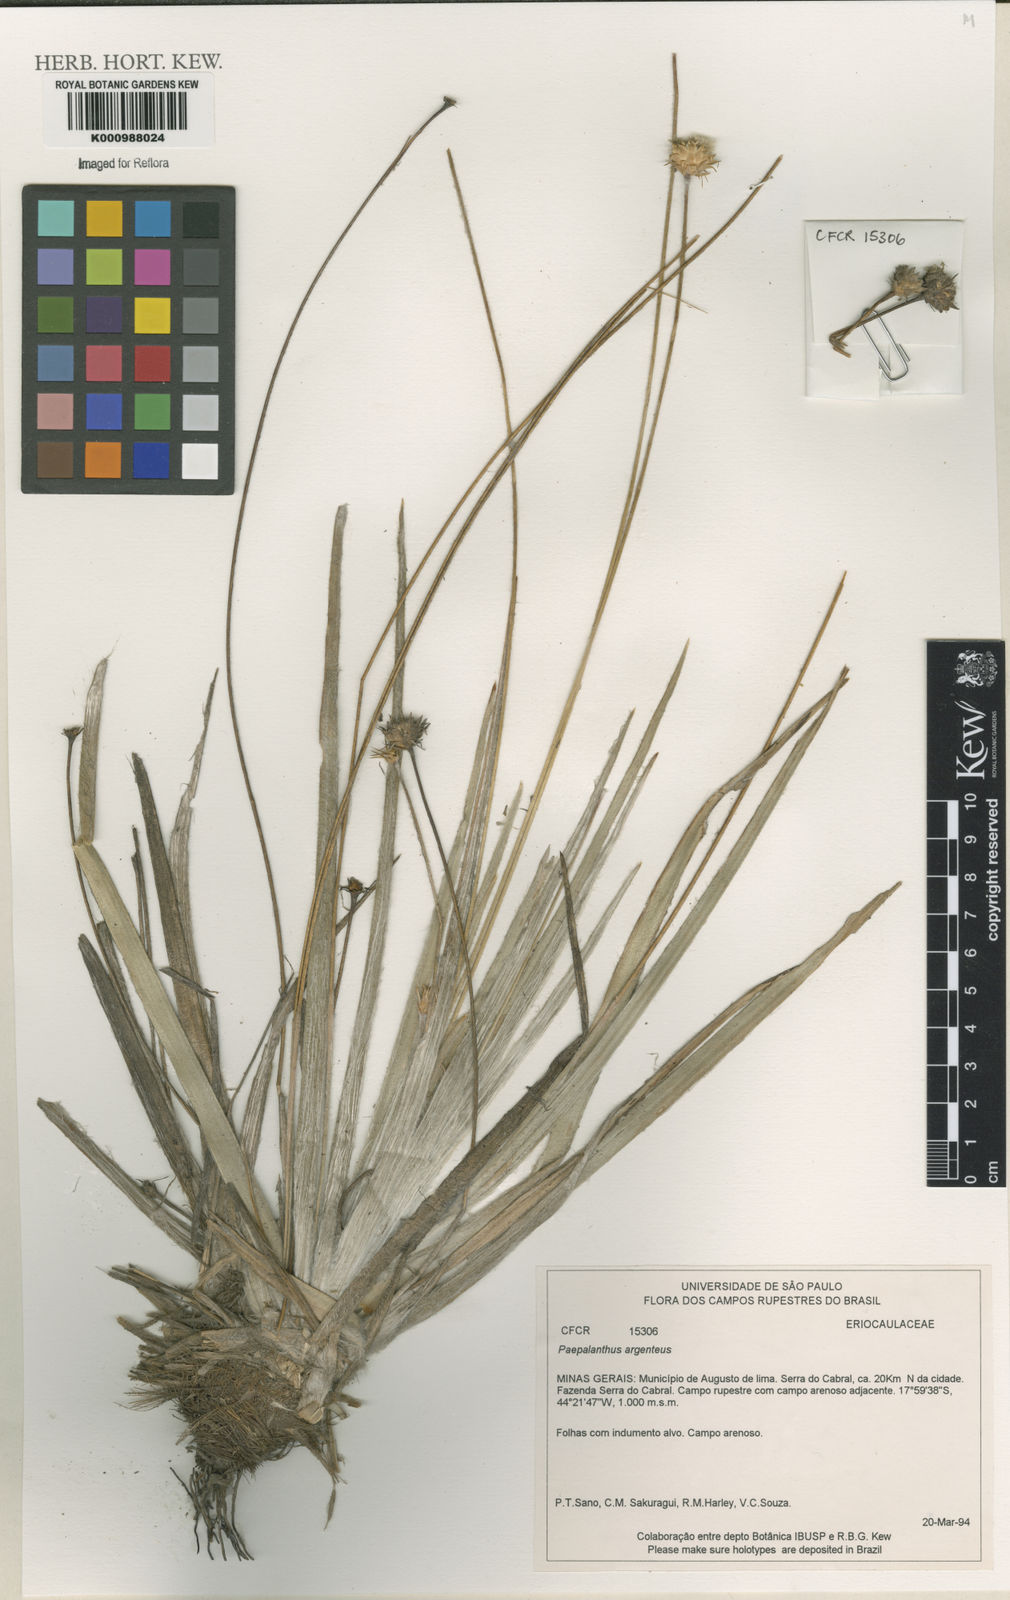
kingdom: Plantae
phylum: Tracheophyta
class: Liliopsida
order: Poales
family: Eriocaulaceae
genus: Paepalanthus
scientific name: Paepalanthus
